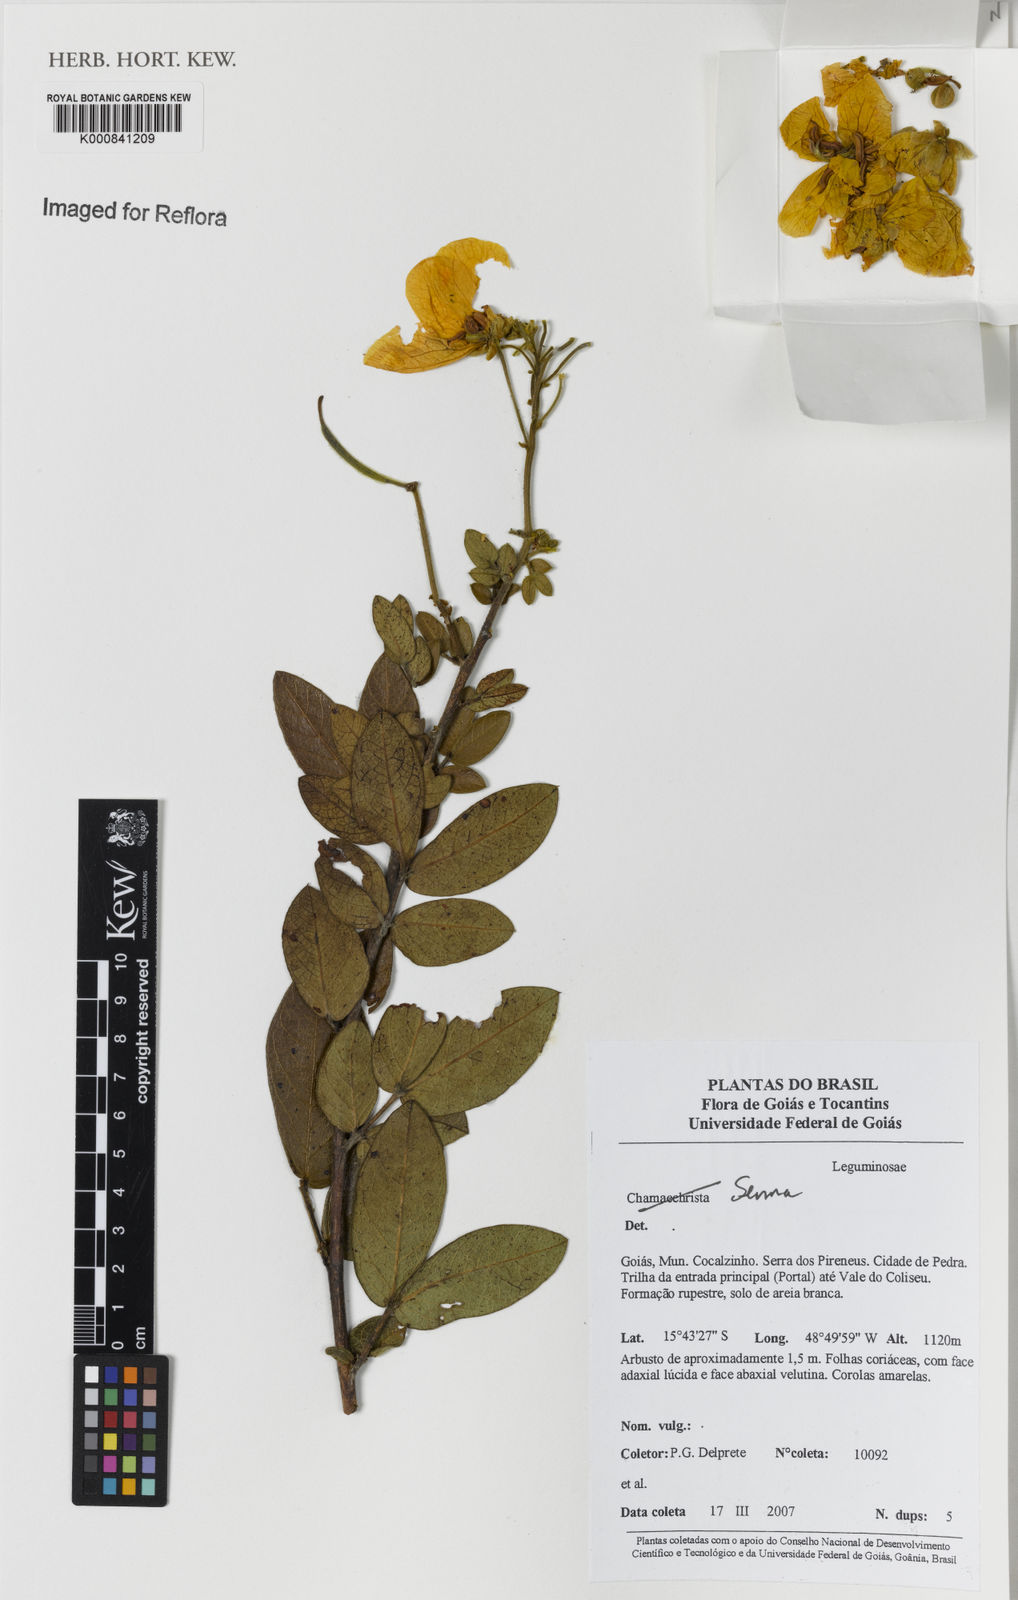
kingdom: Plantae
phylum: Tracheophyta
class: Magnoliopsida
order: Fabales
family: Fabaceae
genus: Senna
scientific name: Senna rugosa
